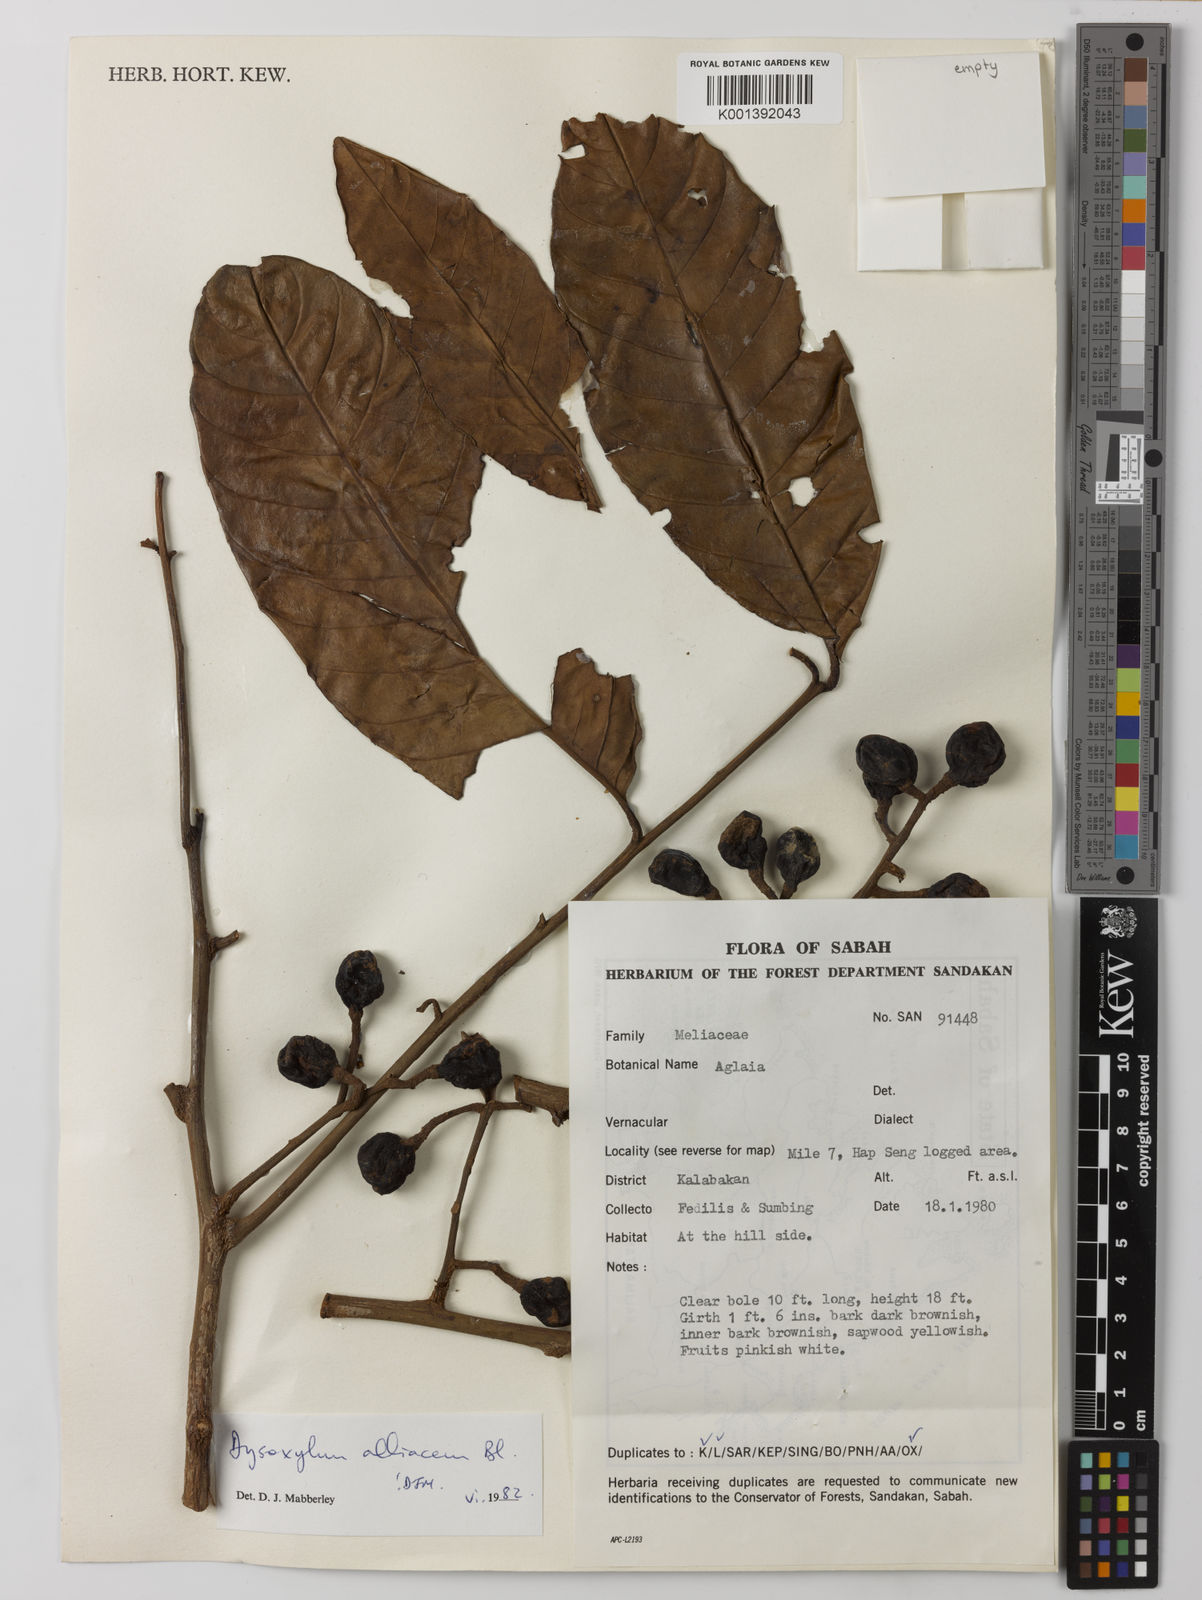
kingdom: Plantae
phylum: Tracheophyta
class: Magnoliopsida
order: Sapindales
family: Meliaceae
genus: Prasoxylon
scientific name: Prasoxylon alliaceum
